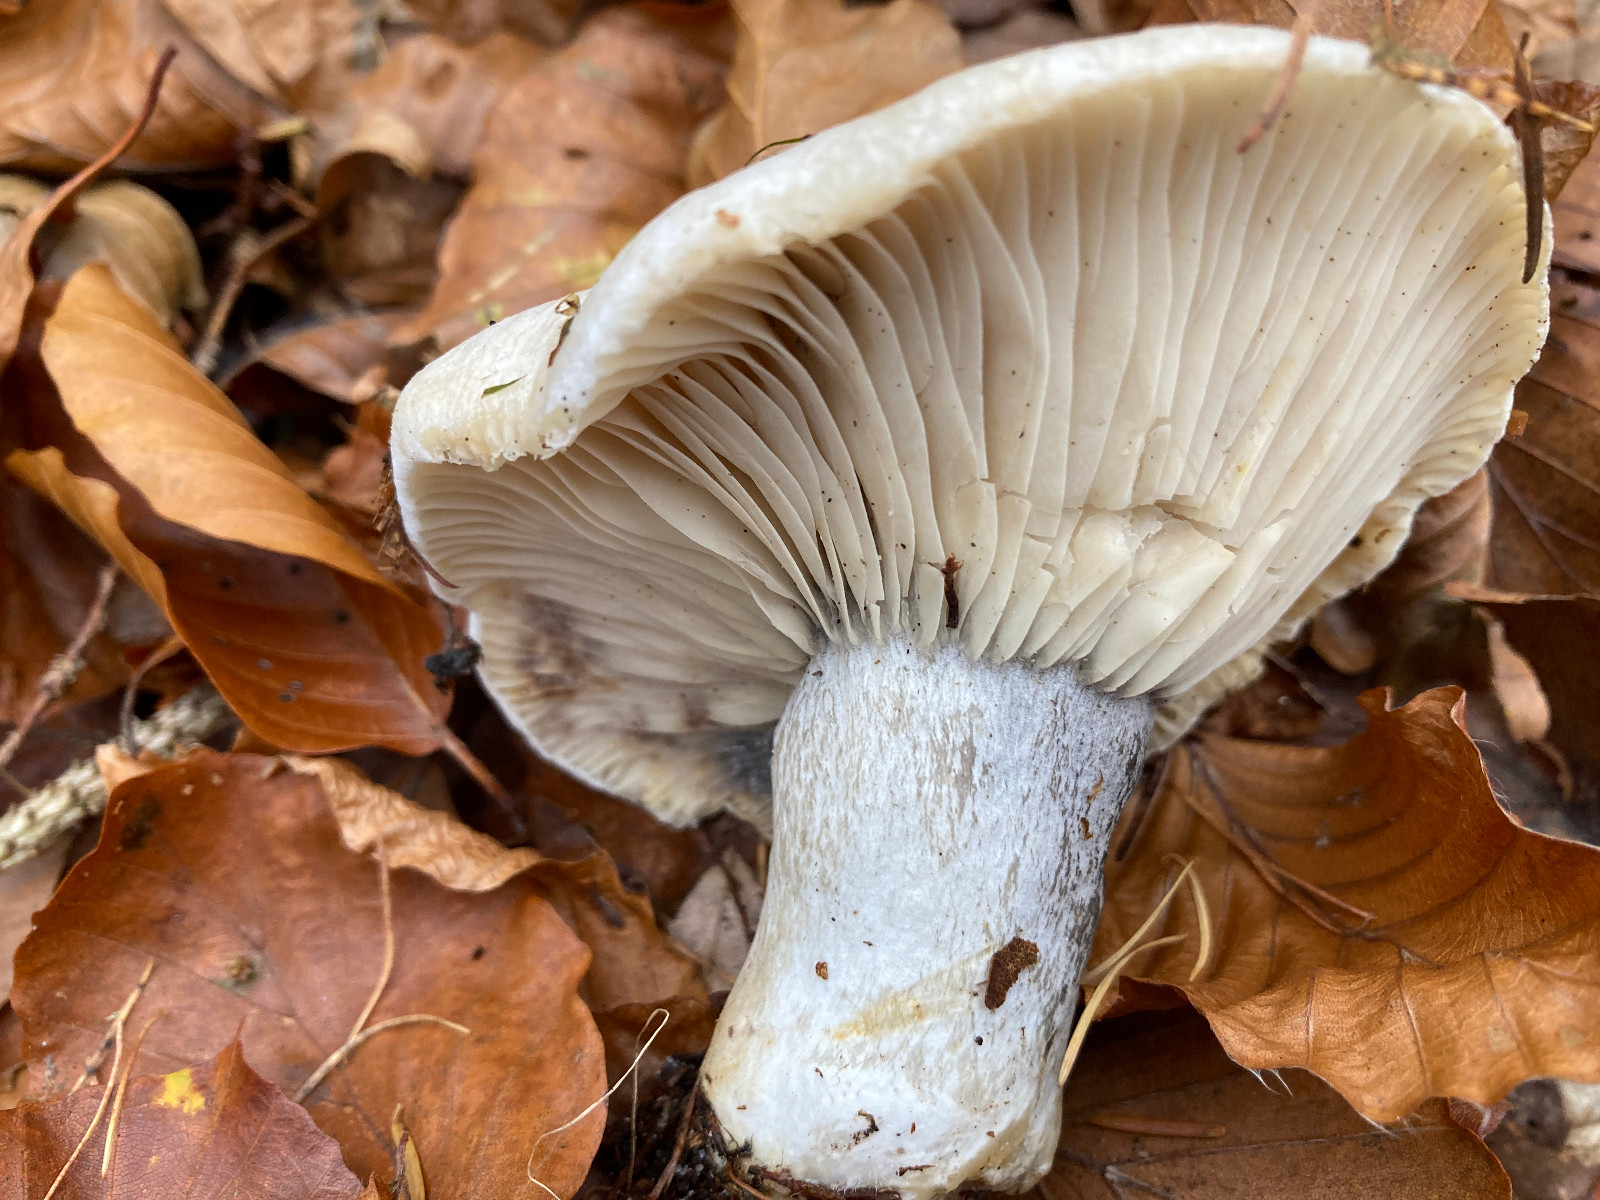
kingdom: Fungi
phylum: Basidiomycota
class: Agaricomycetes
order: Russulales
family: Russulaceae
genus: Russula
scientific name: Russula densifolia
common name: tætbladet skørhat
